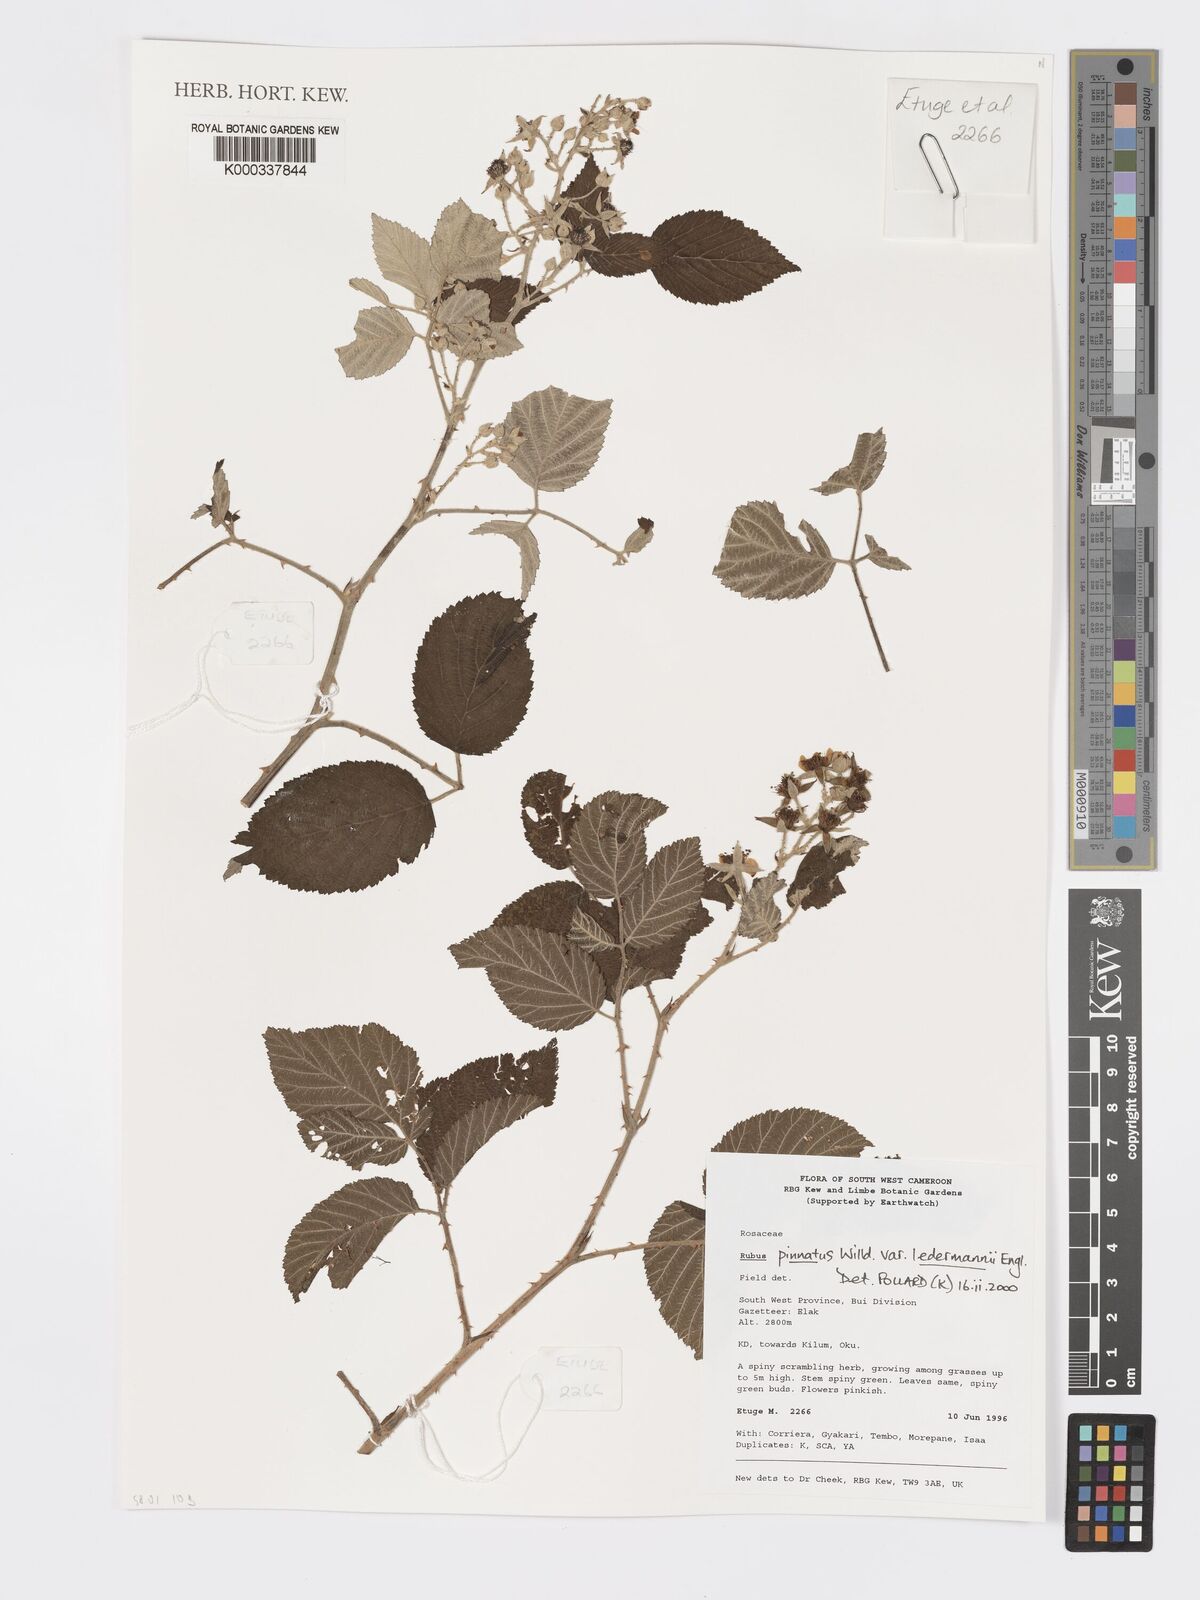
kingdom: Plantae
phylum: Tracheophyta
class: Magnoliopsida
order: Rosales
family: Rosaceae
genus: Rubus
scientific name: Rubus pinnatus
